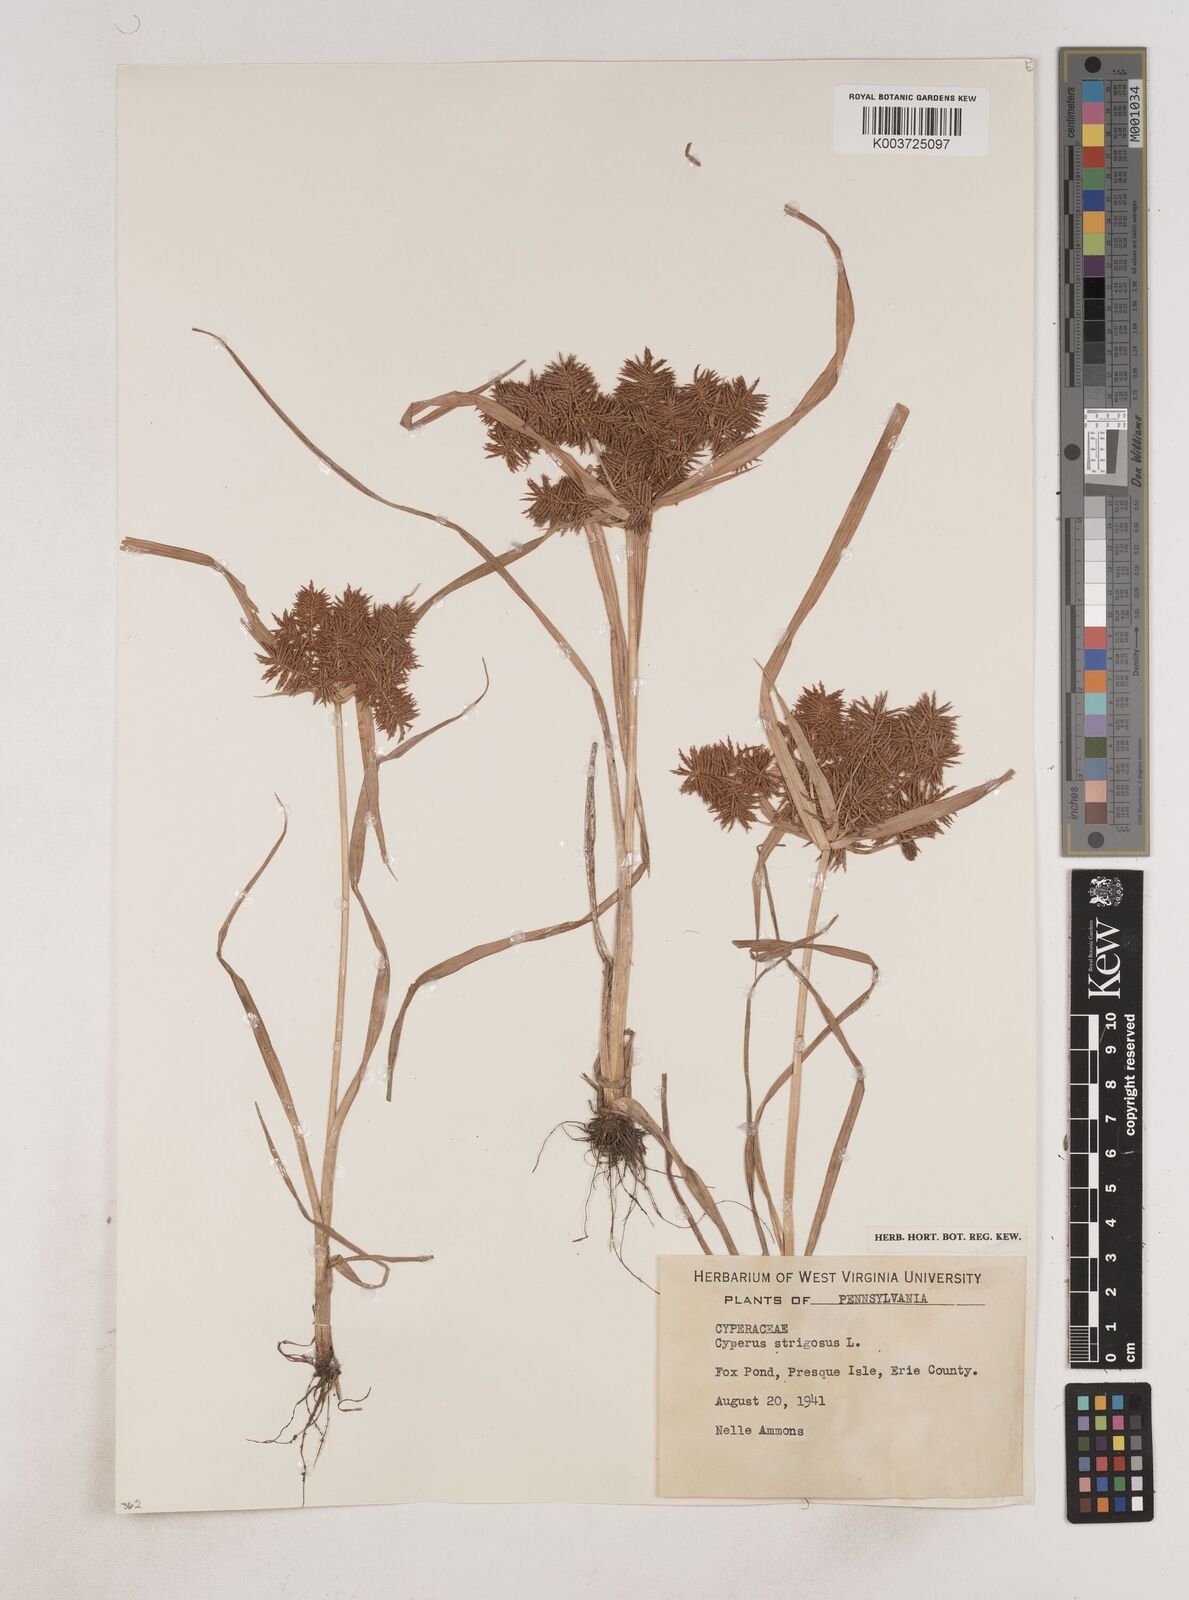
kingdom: Plantae
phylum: Tracheophyta
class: Liliopsida
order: Poales
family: Cyperaceae
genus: Cyperus
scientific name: Cyperus strigosus
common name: False nutsedge
